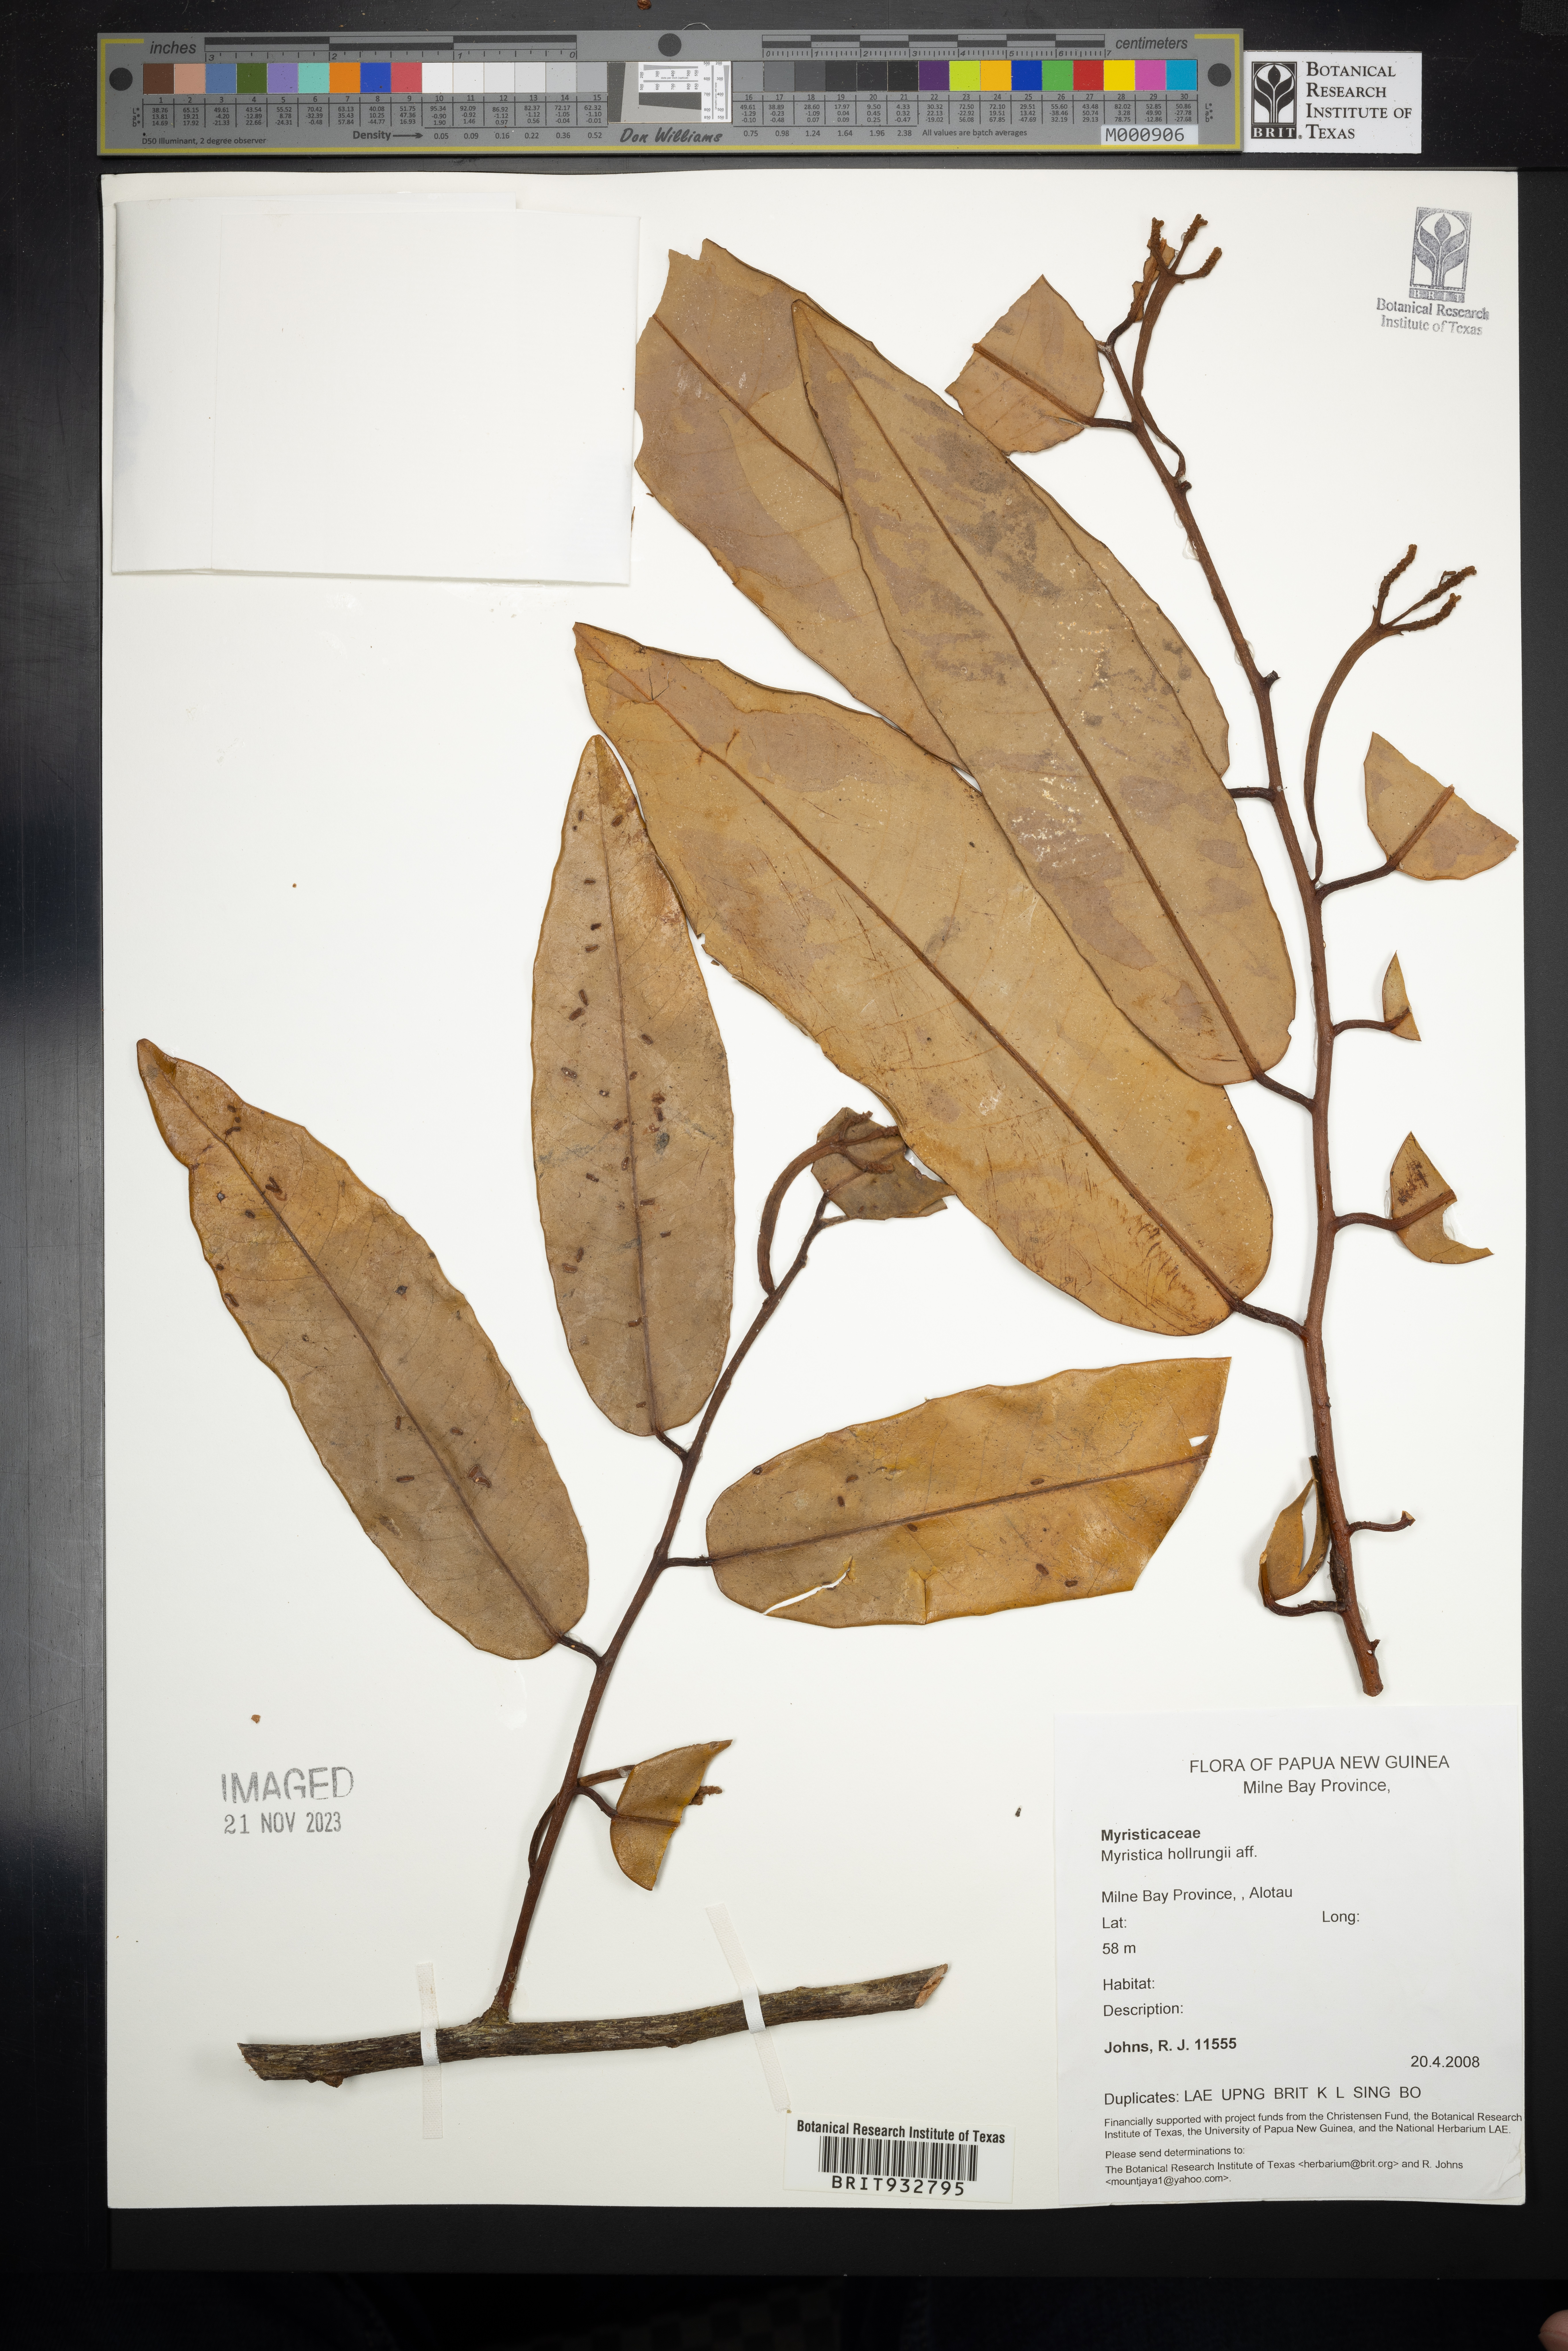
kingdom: Plantae
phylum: Tracheophyta
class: Magnoliopsida
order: Magnoliales
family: Myristicaceae
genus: Myristica
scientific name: Myristica
